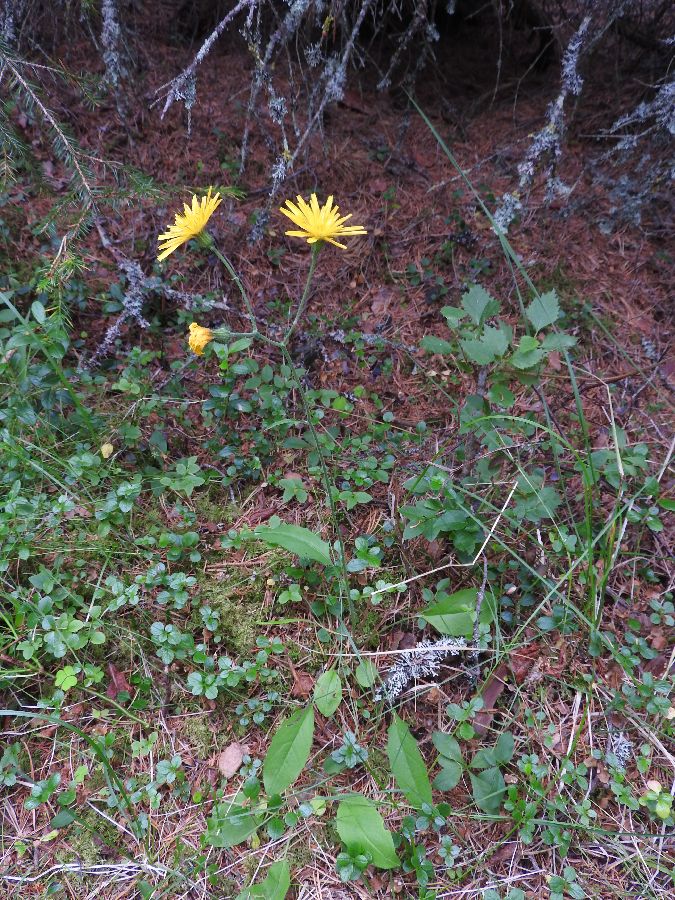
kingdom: Plantae
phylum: Tracheophyta
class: Magnoliopsida
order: Asterales
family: Asteraceae
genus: Hieracium
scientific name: Hieracium vulgatum
